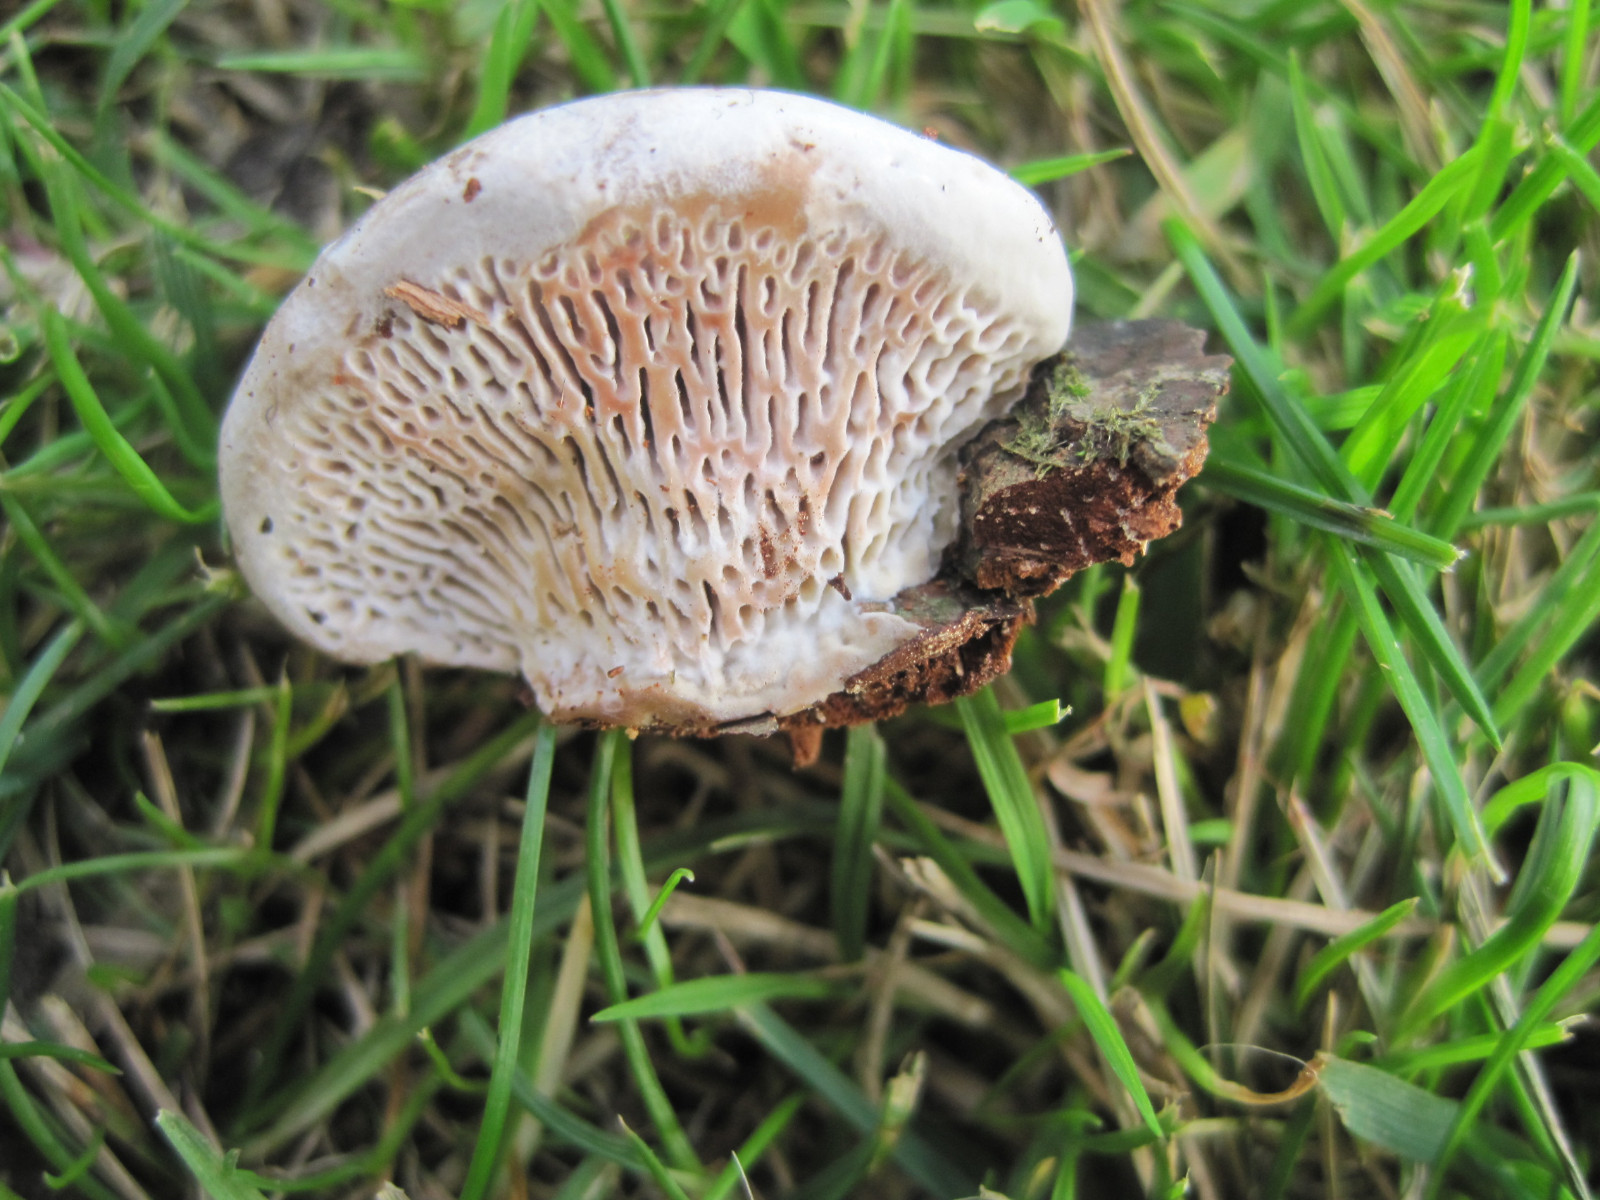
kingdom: Fungi
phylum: Basidiomycota
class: Agaricomycetes
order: Polyporales
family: Polyporaceae
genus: Daedaleopsis
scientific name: Daedaleopsis confragosa
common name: rødmende læderporesvamp
